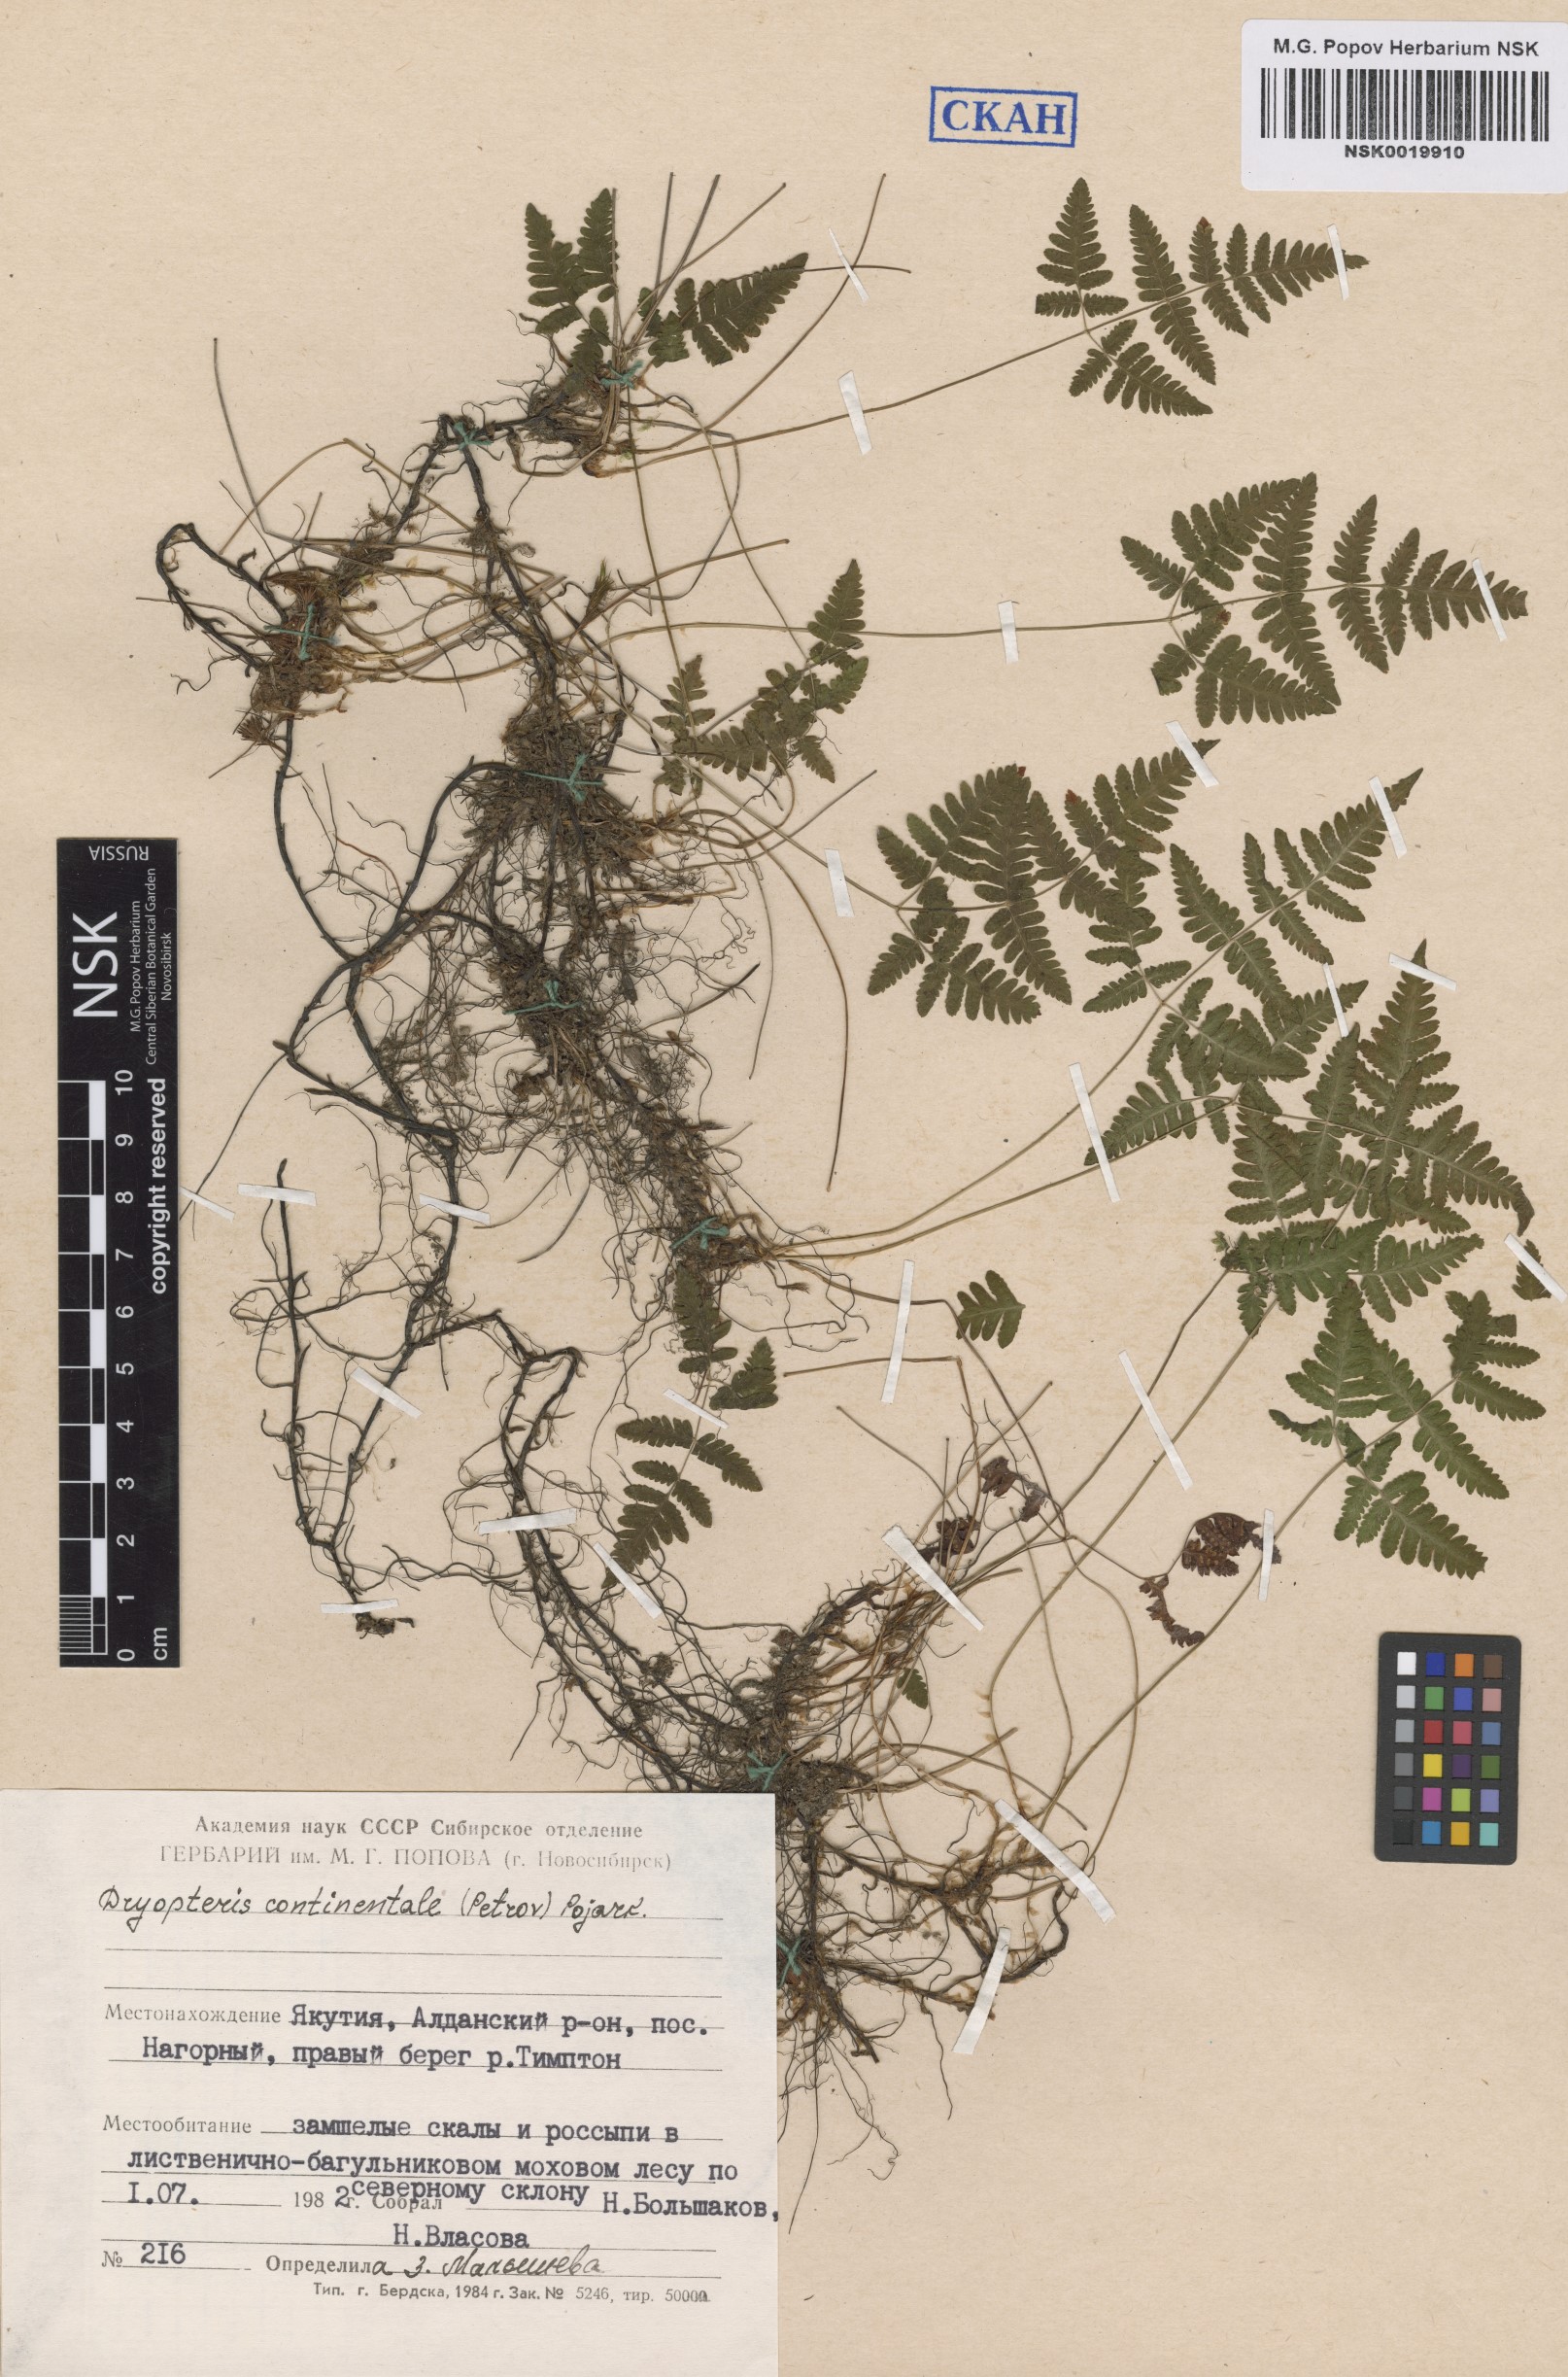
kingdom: Plantae
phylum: Tracheophyta
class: Polypodiopsida
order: Polypodiales
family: Cystopteridaceae
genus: Gymnocarpium
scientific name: Gymnocarpium continentale
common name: Asian oak fern
